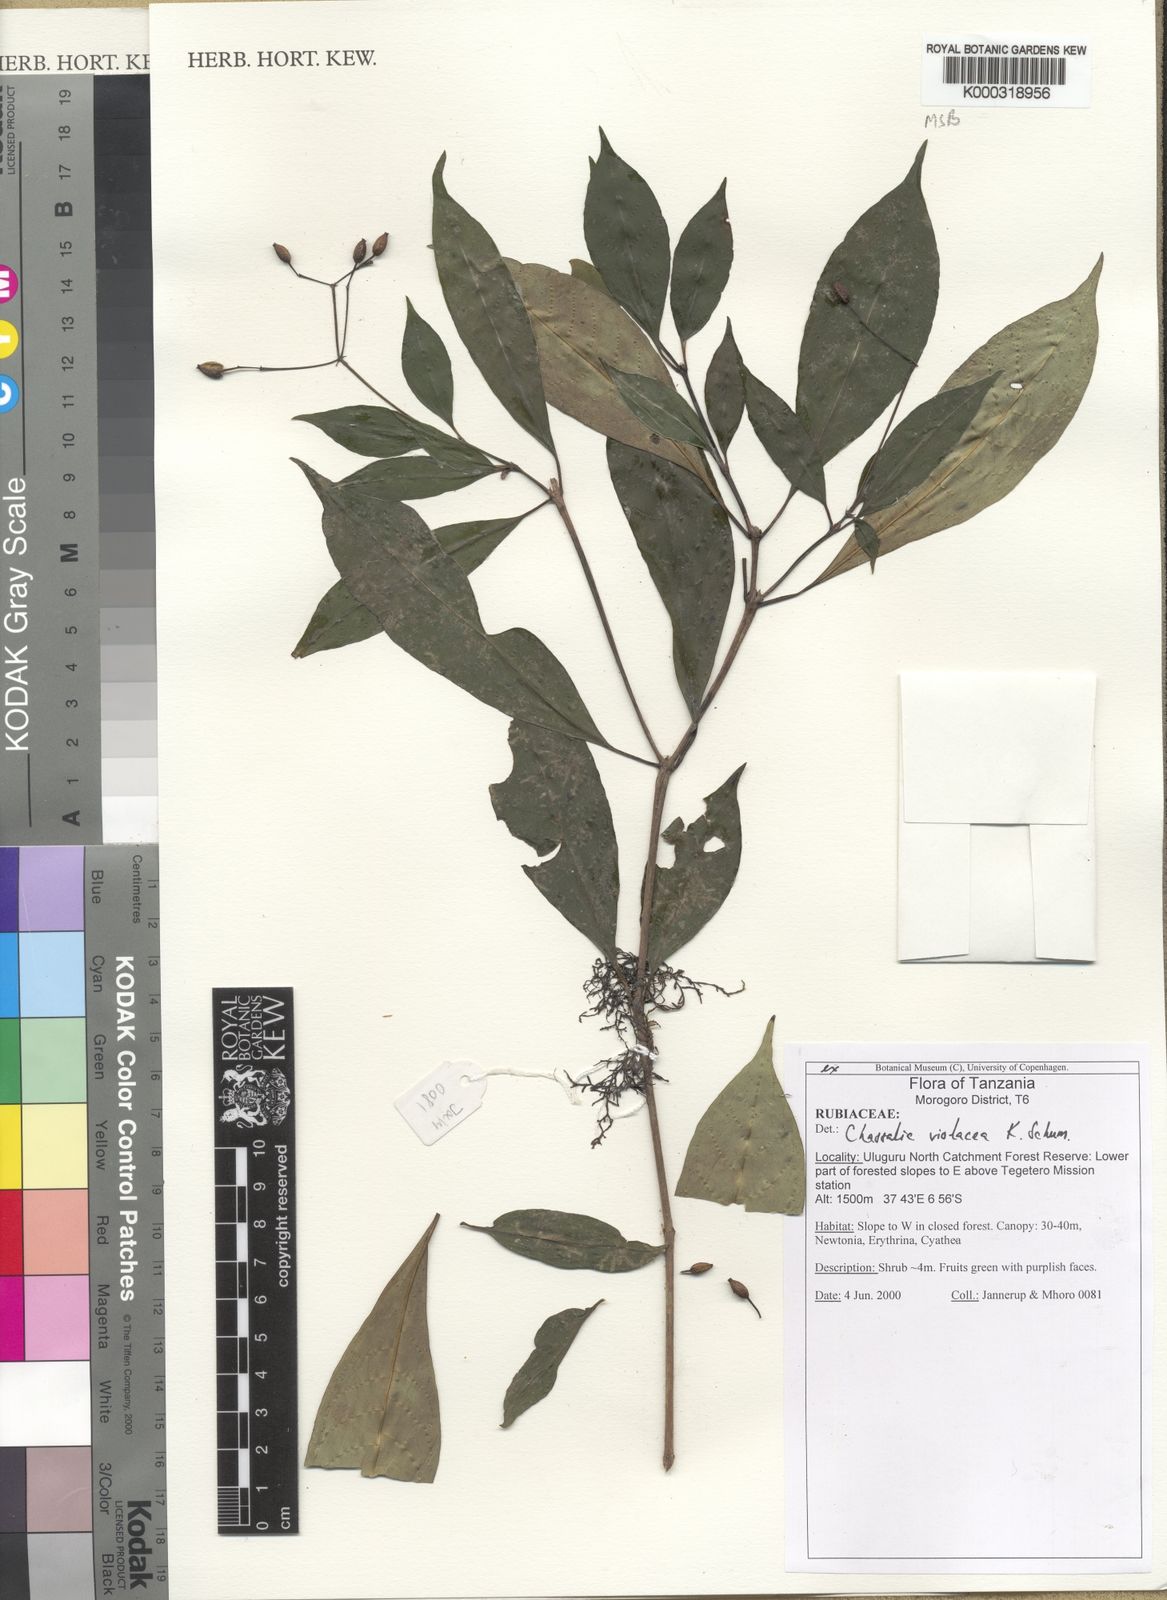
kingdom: Plantae
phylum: Tracheophyta
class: Magnoliopsida
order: Gentianales
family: Rubiaceae
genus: Chassalia
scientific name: Chassalia violacea
